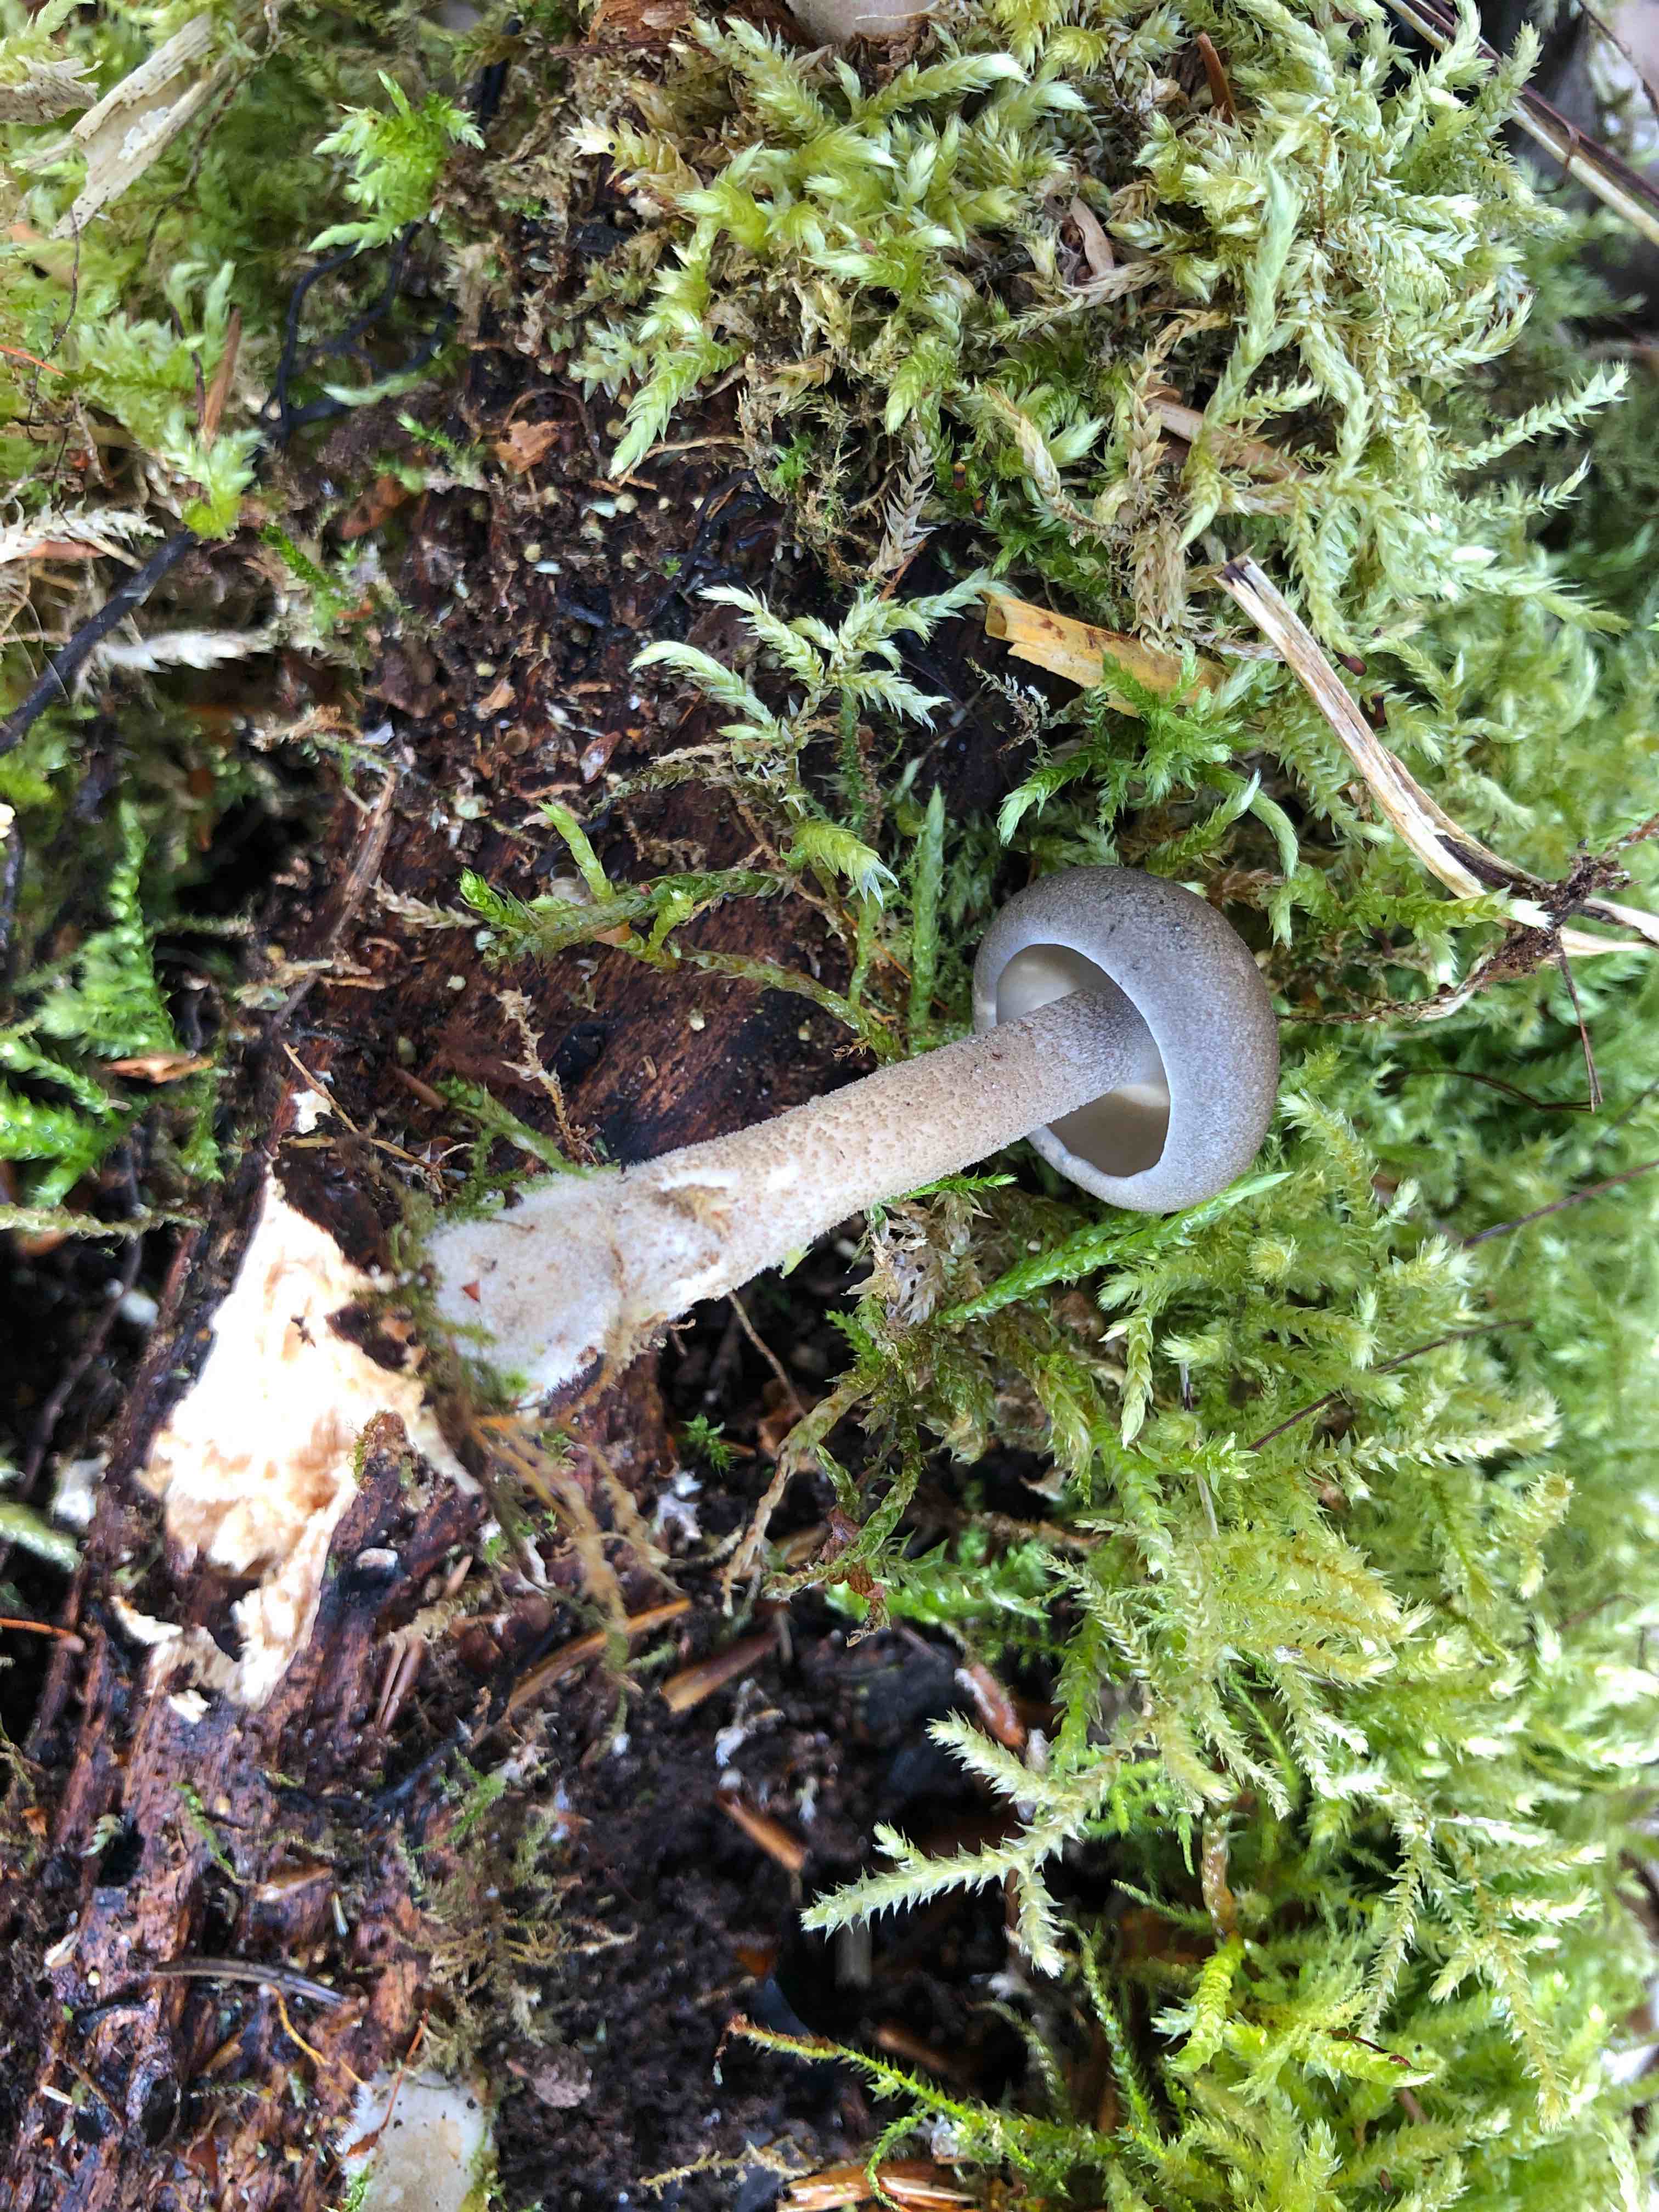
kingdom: Fungi
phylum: Basidiomycota
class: Agaricomycetes
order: Polyporales
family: Polyporaceae
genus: Lentinus
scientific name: Lentinus substrictus
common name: forårs-stilkporesvamp
